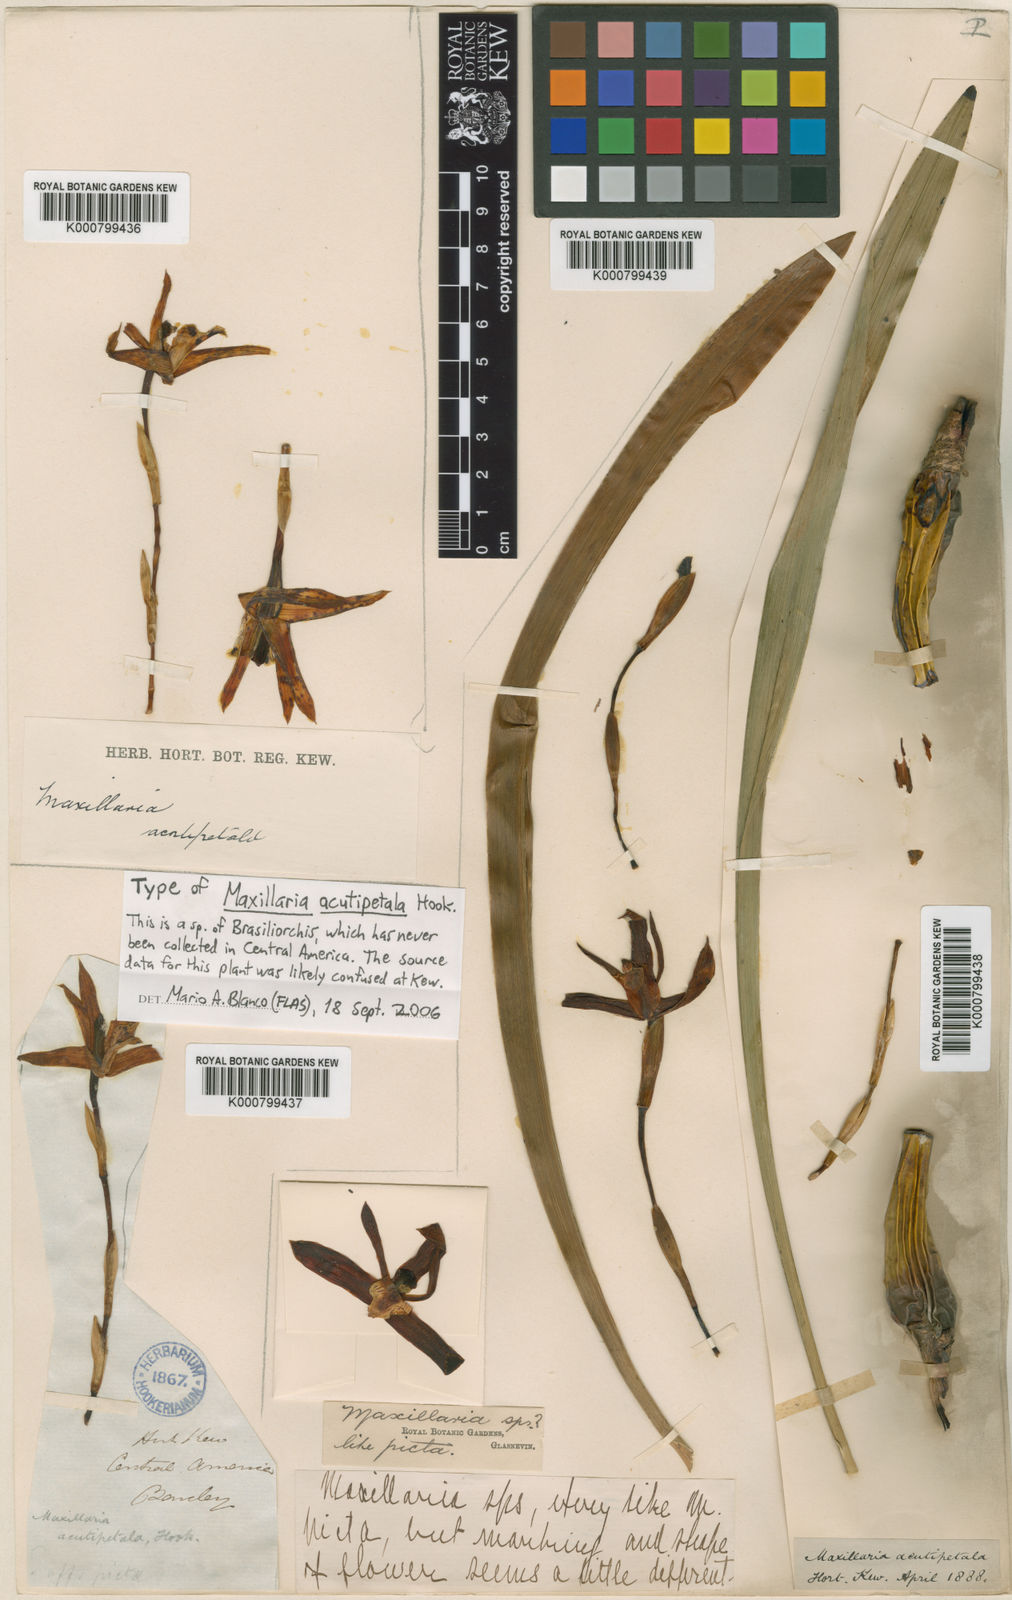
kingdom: Plantae
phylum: Tracheophyta
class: Liliopsida
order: Asparagales
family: Orchidaceae
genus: Maxillaria
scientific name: Maxillaria picta
